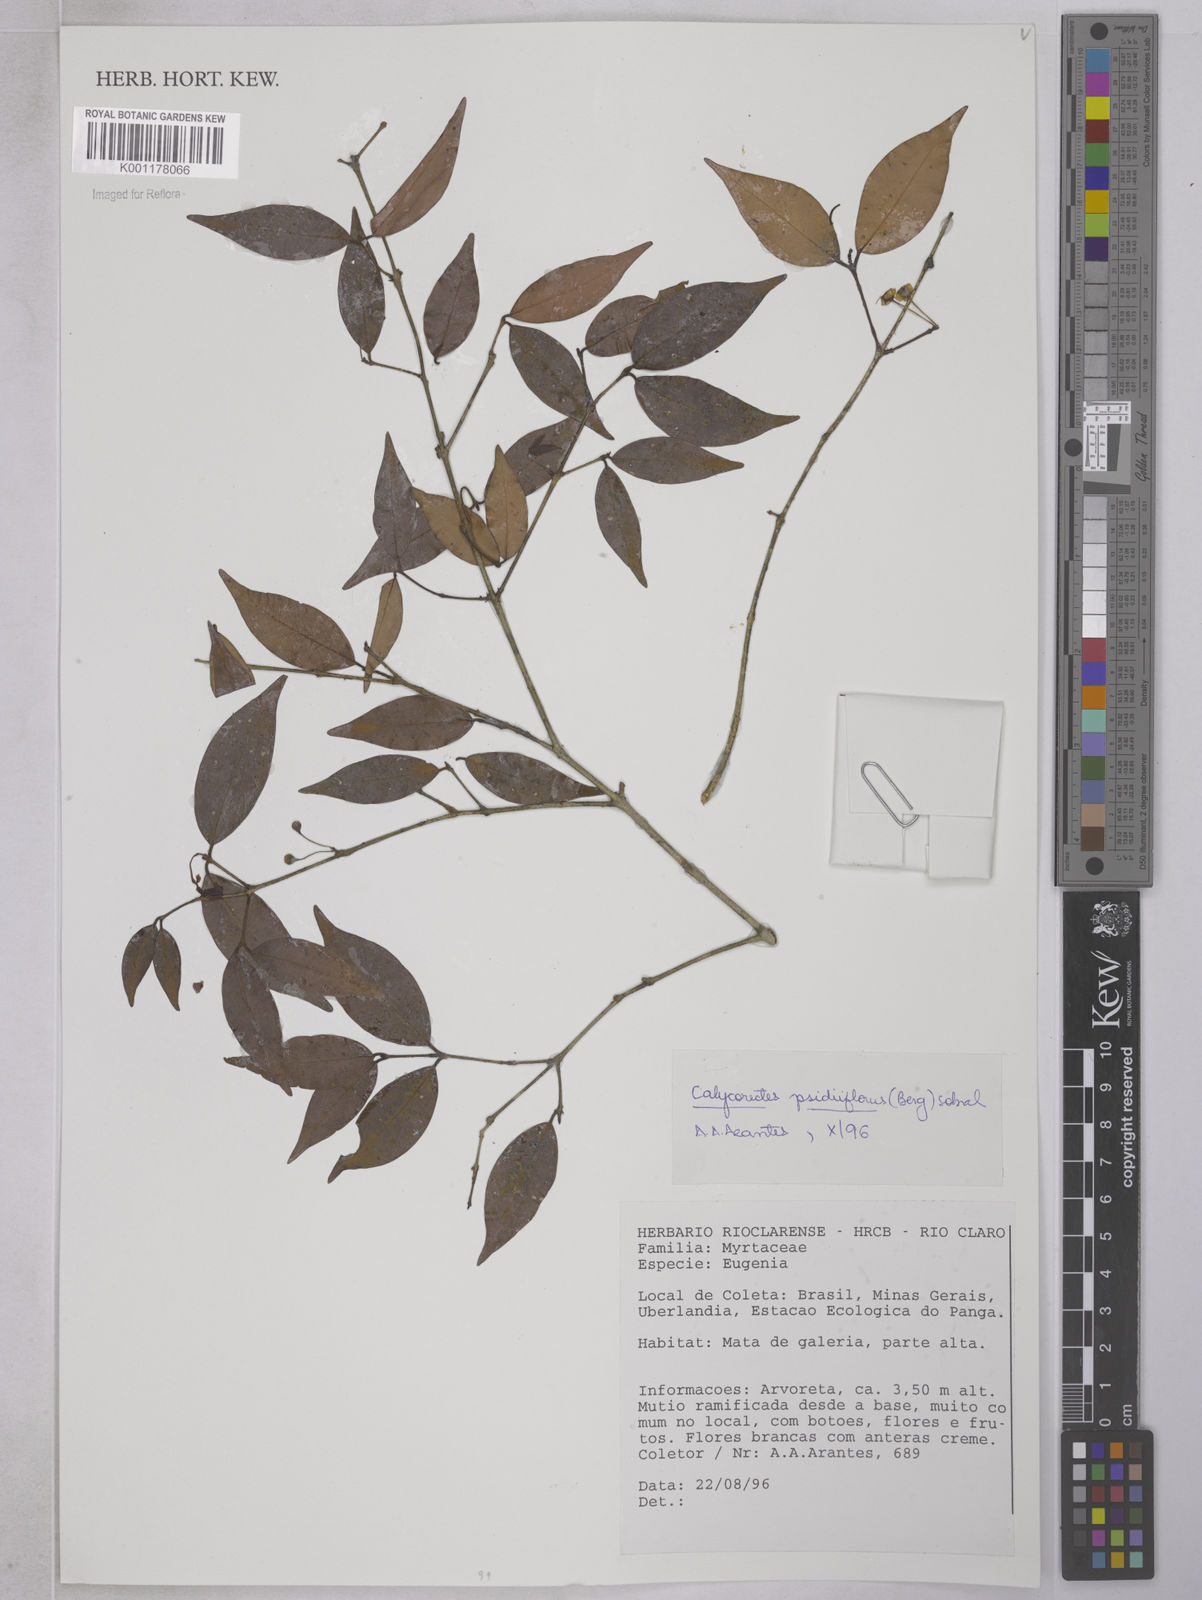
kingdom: Plantae
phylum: Tracheophyta
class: Magnoliopsida
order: Myrtales
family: Myrtaceae
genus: Eugenia
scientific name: Eugenia subterminalis
